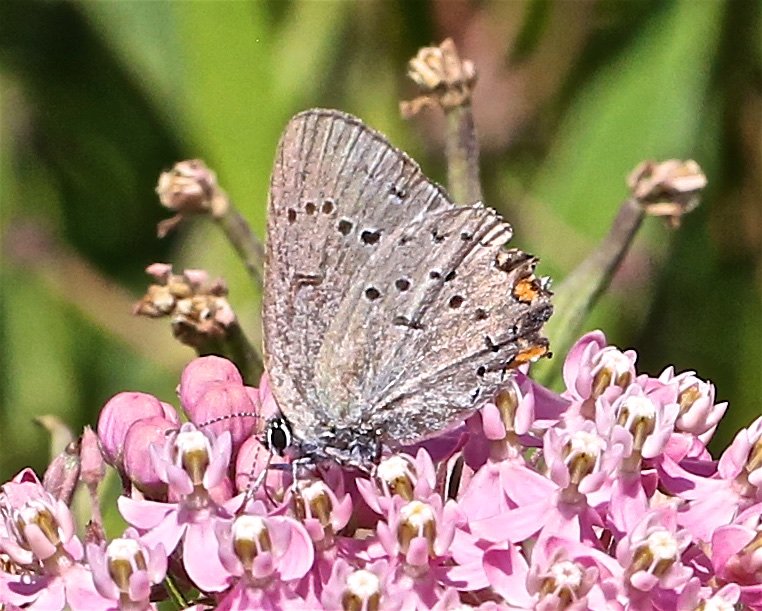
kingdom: Animalia
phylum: Arthropoda
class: Insecta
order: Lepidoptera
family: Lycaenidae
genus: Strymon
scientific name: Strymon acadica
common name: Acadian Hairstreak
